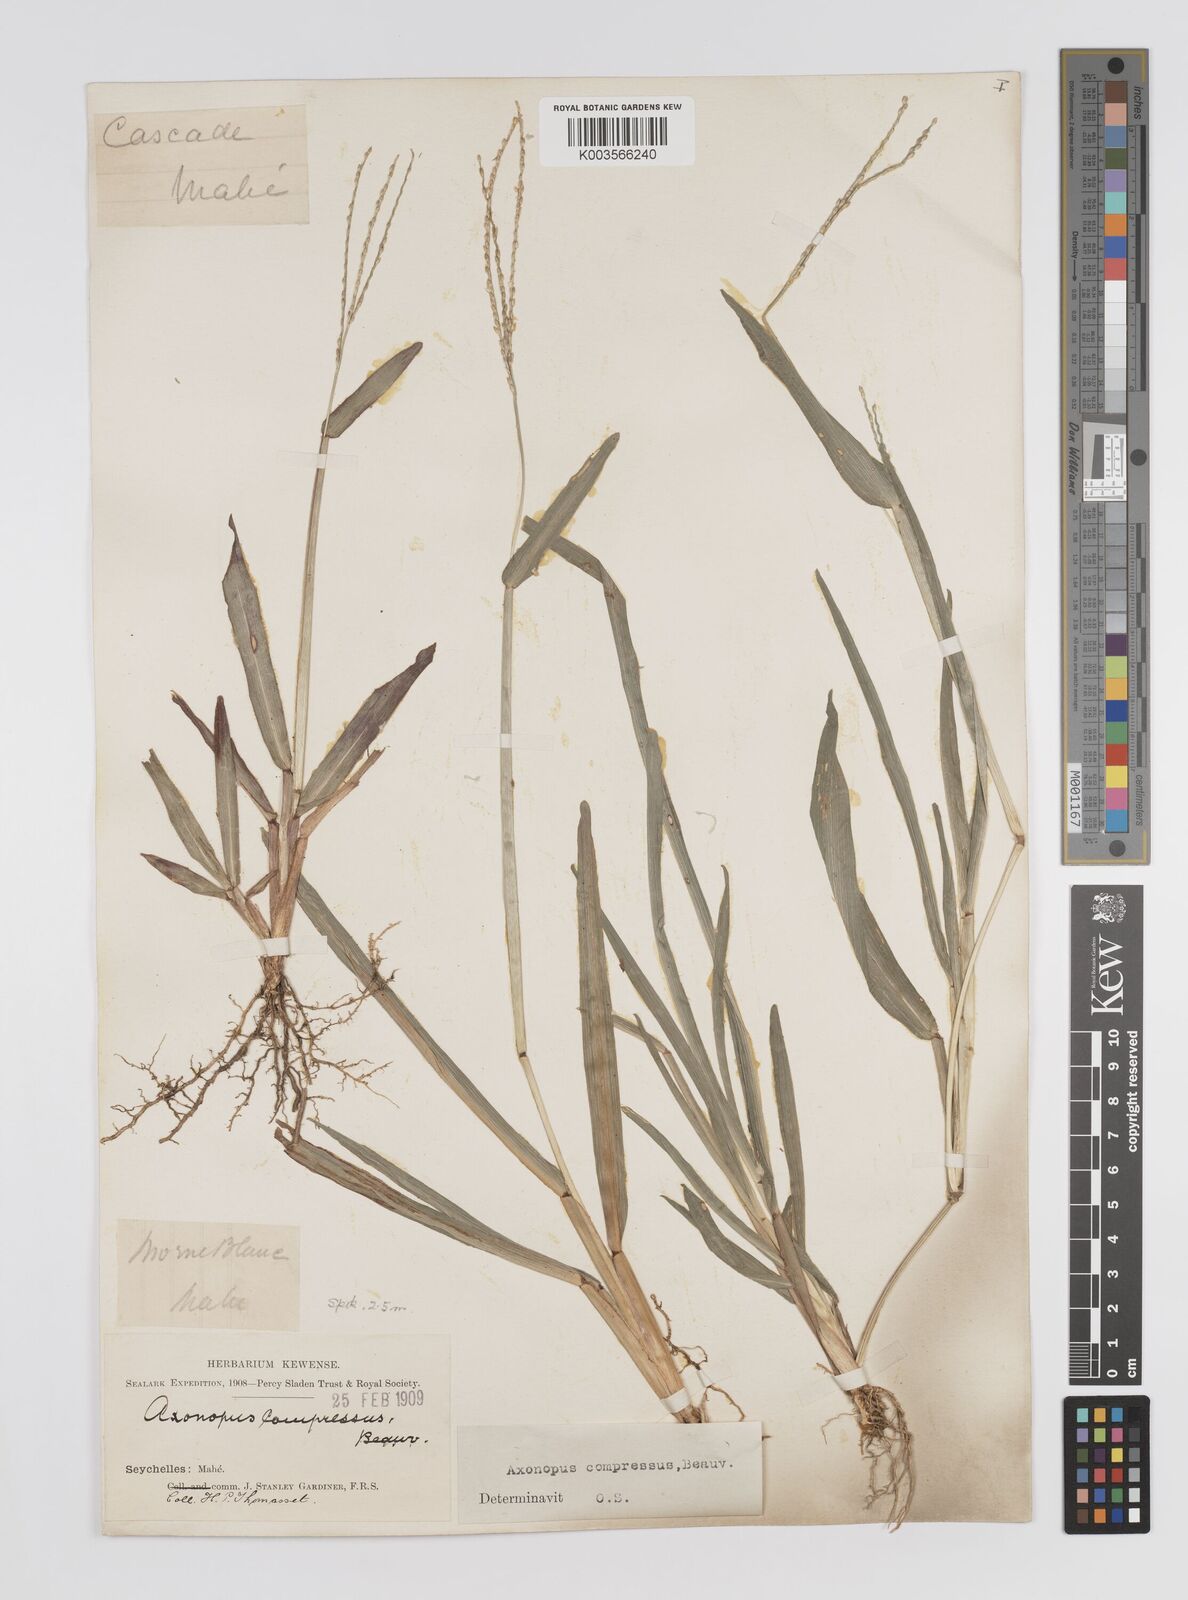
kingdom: Plantae
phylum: Tracheophyta
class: Liliopsida
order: Poales
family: Poaceae
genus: Axonopus
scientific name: Axonopus compressus
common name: American carpet grass
